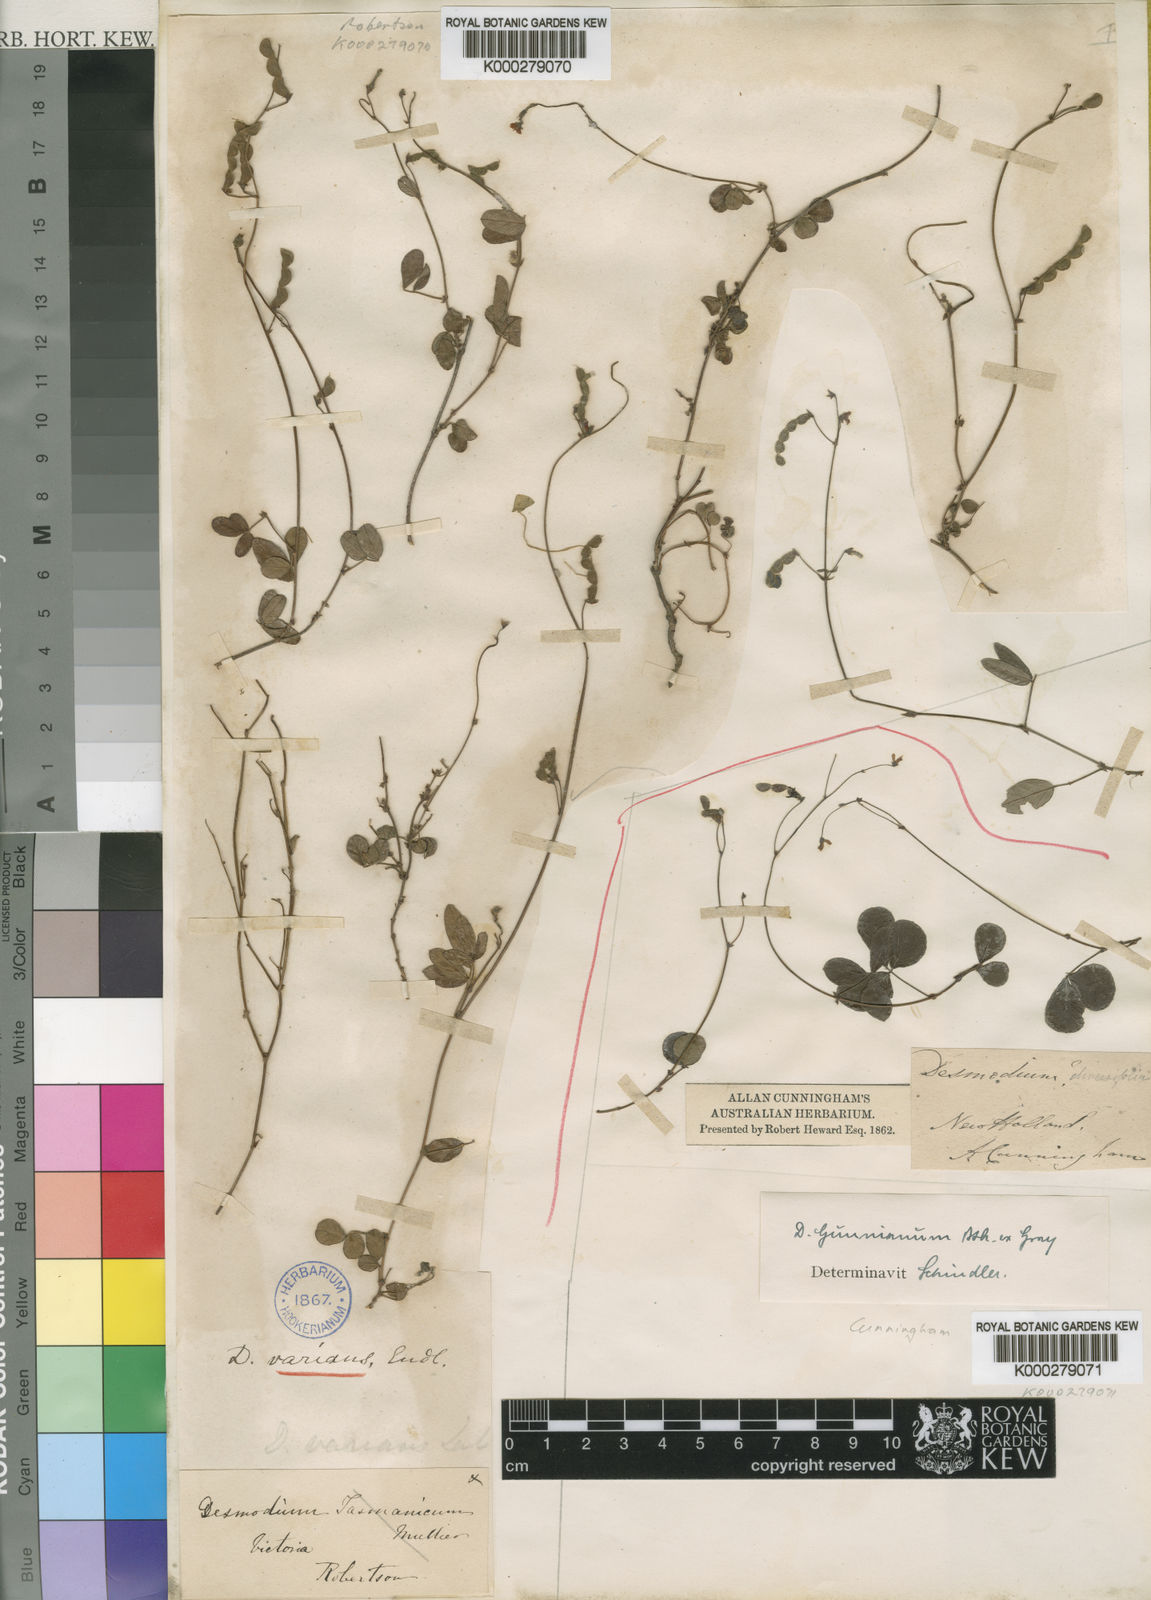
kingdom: Plantae
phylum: Tracheophyta
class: Magnoliopsida
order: Fabales
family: Fabaceae
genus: Grona
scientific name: Grona varians
